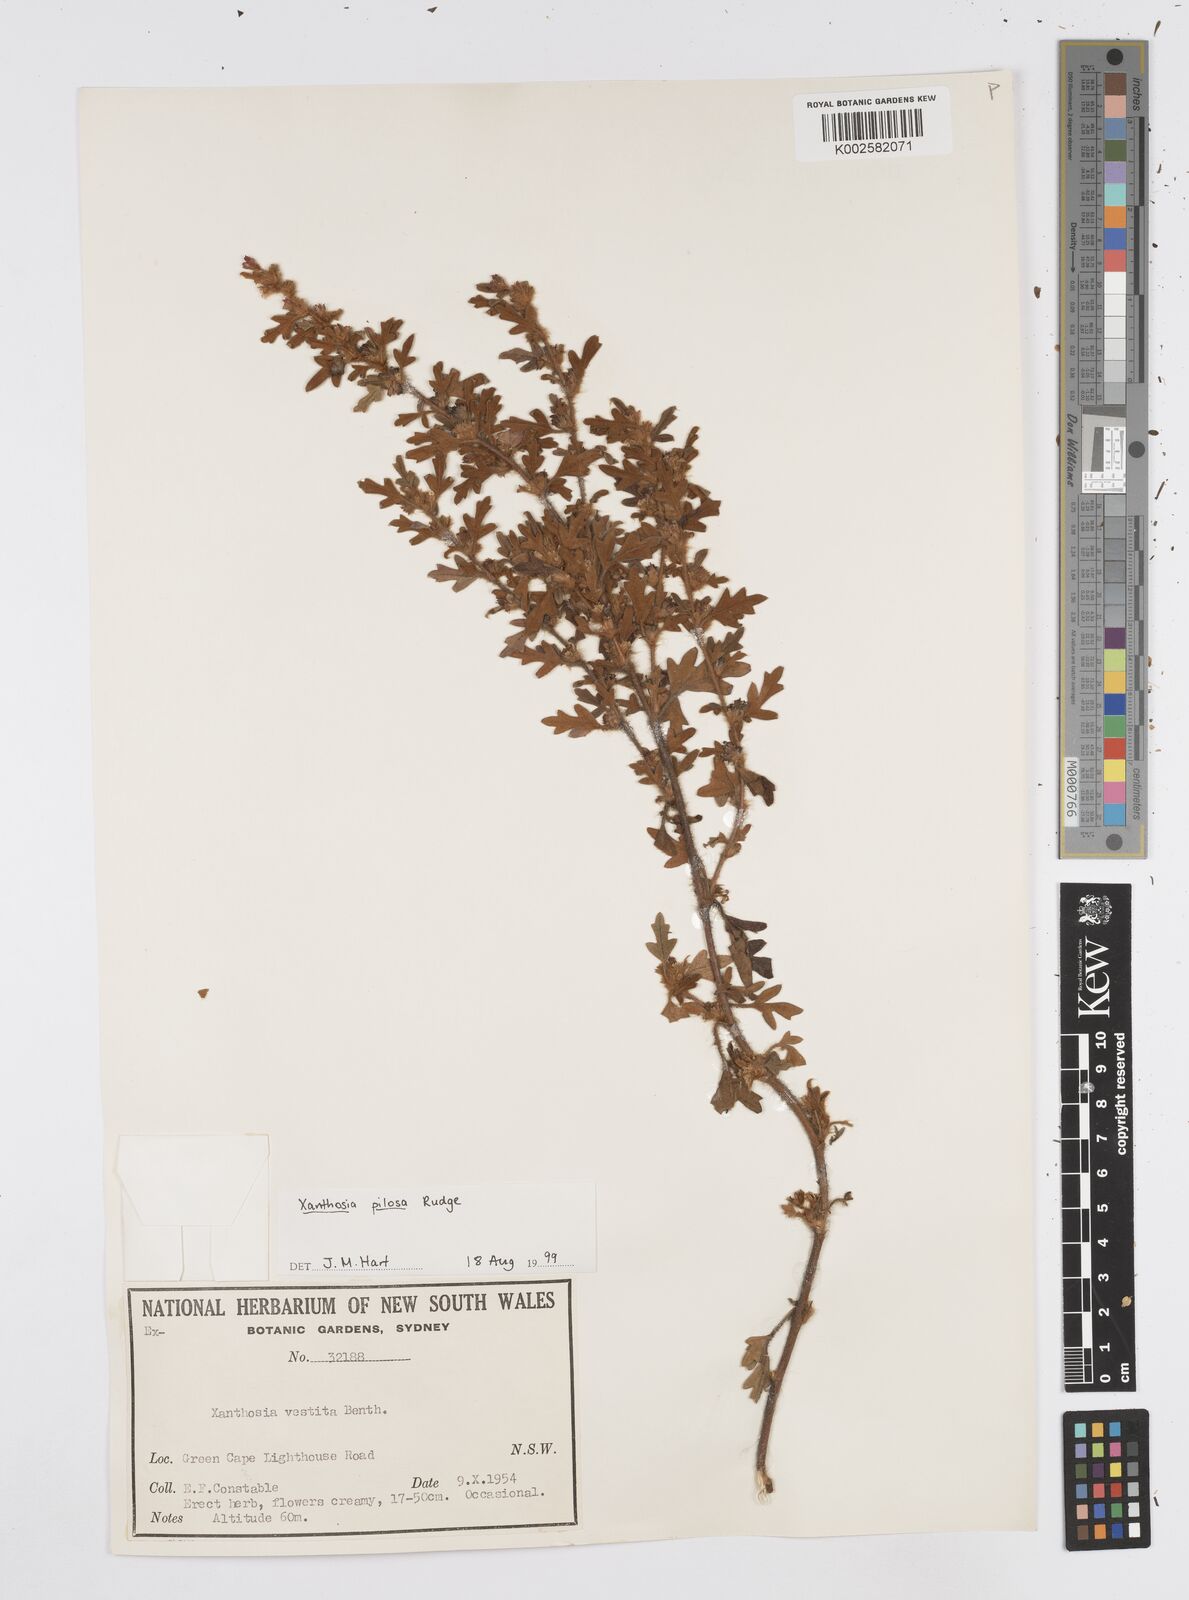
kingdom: Plantae
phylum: Tracheophyta
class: Magnoliopsida
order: Apiales
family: Apiaceae
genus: Xanthosia
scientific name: Xanthosia pilosa
